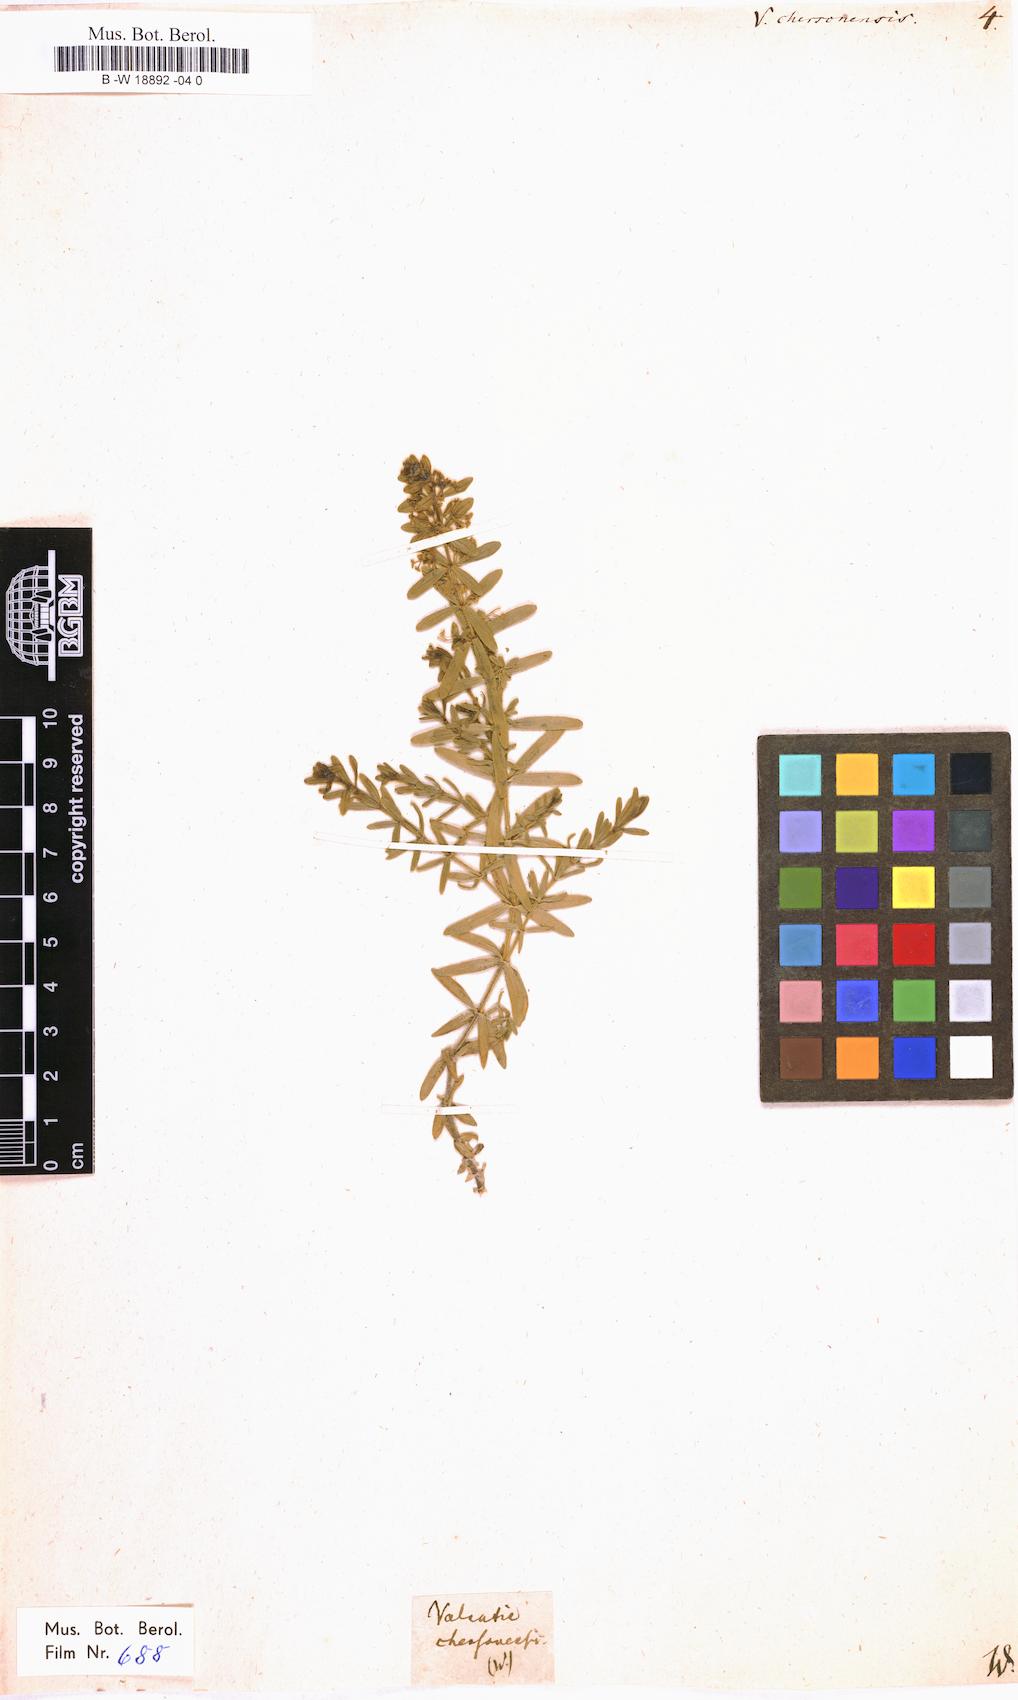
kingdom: Plantae
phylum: Tracheophyta
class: Magnoliopsida
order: Gentianales
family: Rubiaceae
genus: Cruciata
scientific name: Cruciata taurica
